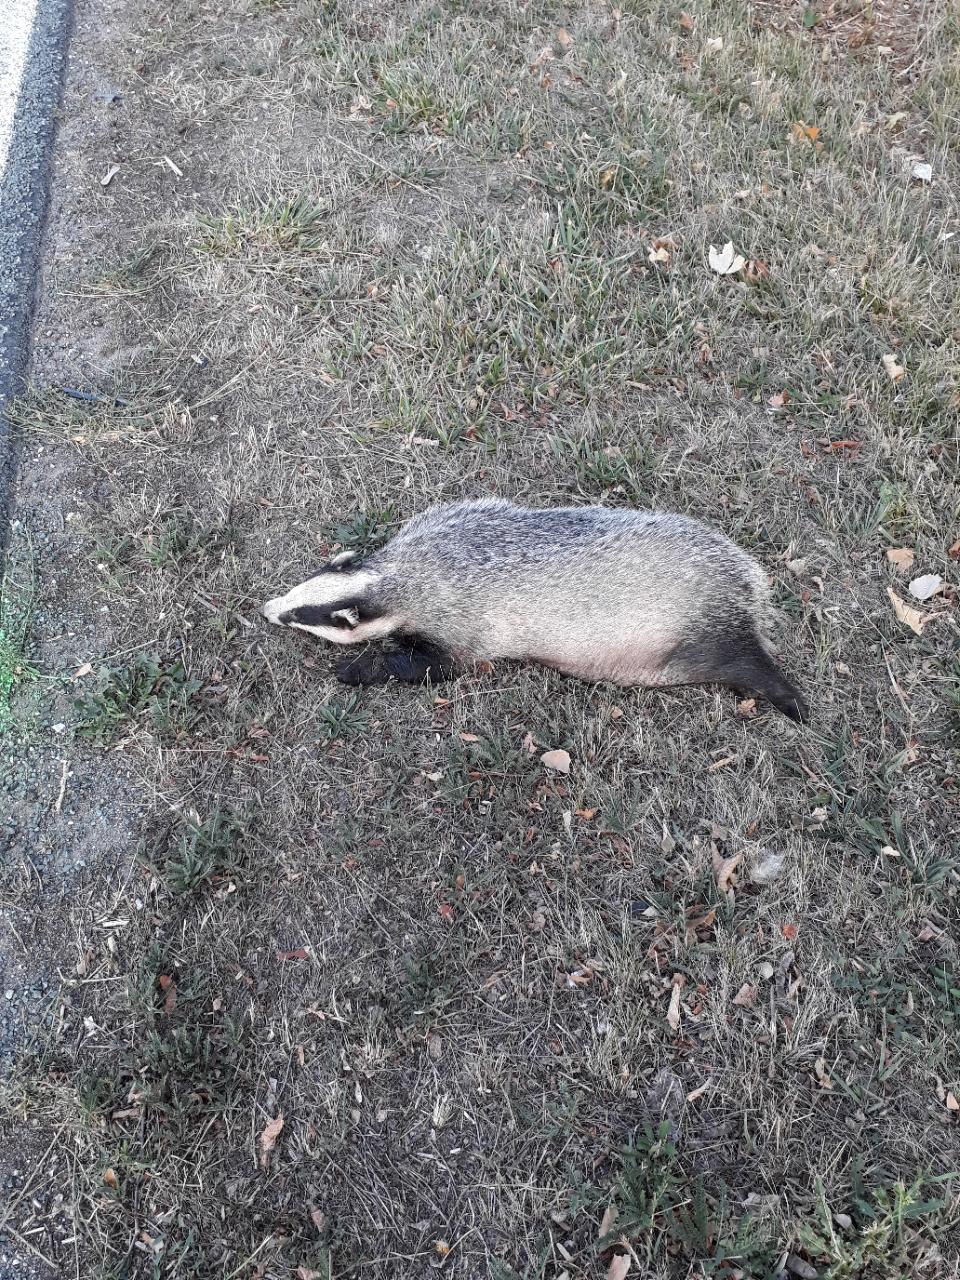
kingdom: Animalia
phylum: Chordata
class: Mammalia
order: Carnivora
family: Mustelidae
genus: Meles
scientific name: Meles meles
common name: Eurasian badger
